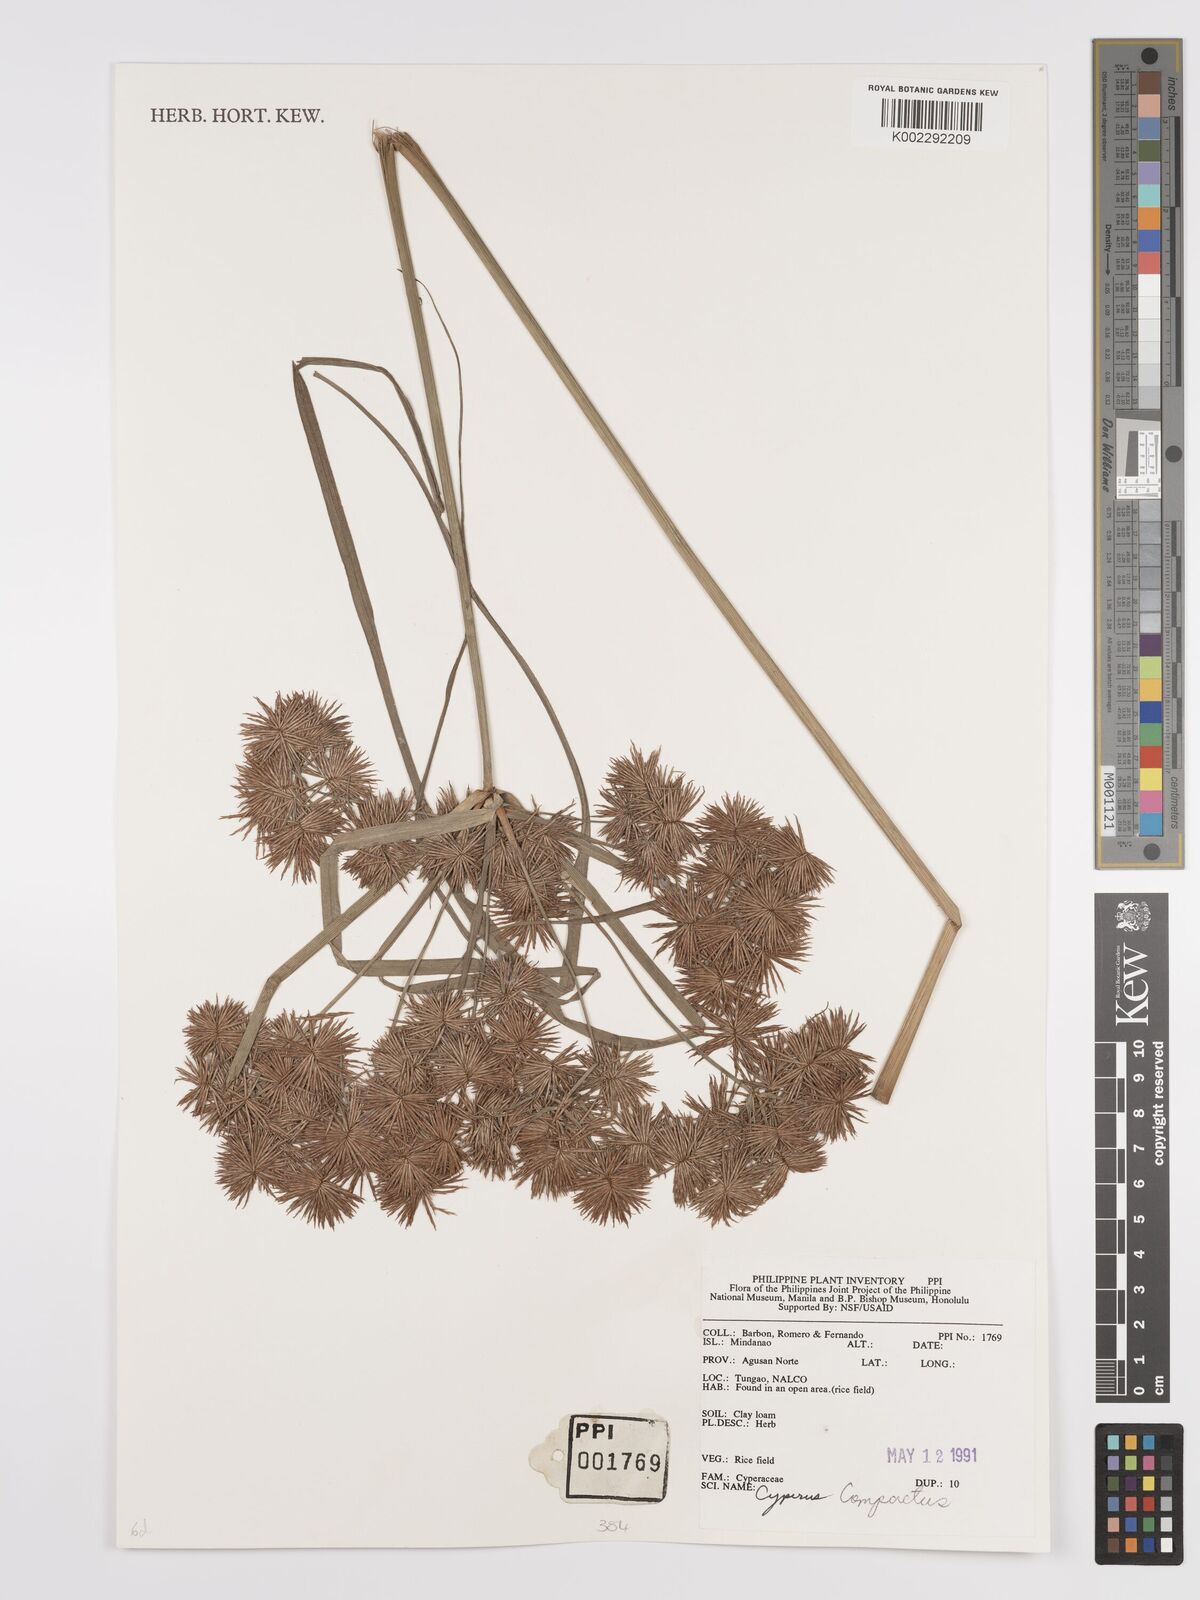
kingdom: Plantae
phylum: Tracheophyta
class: Liliopsida
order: Poales
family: Cyperaceae
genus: Cyperus
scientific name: Cyperus compactus
